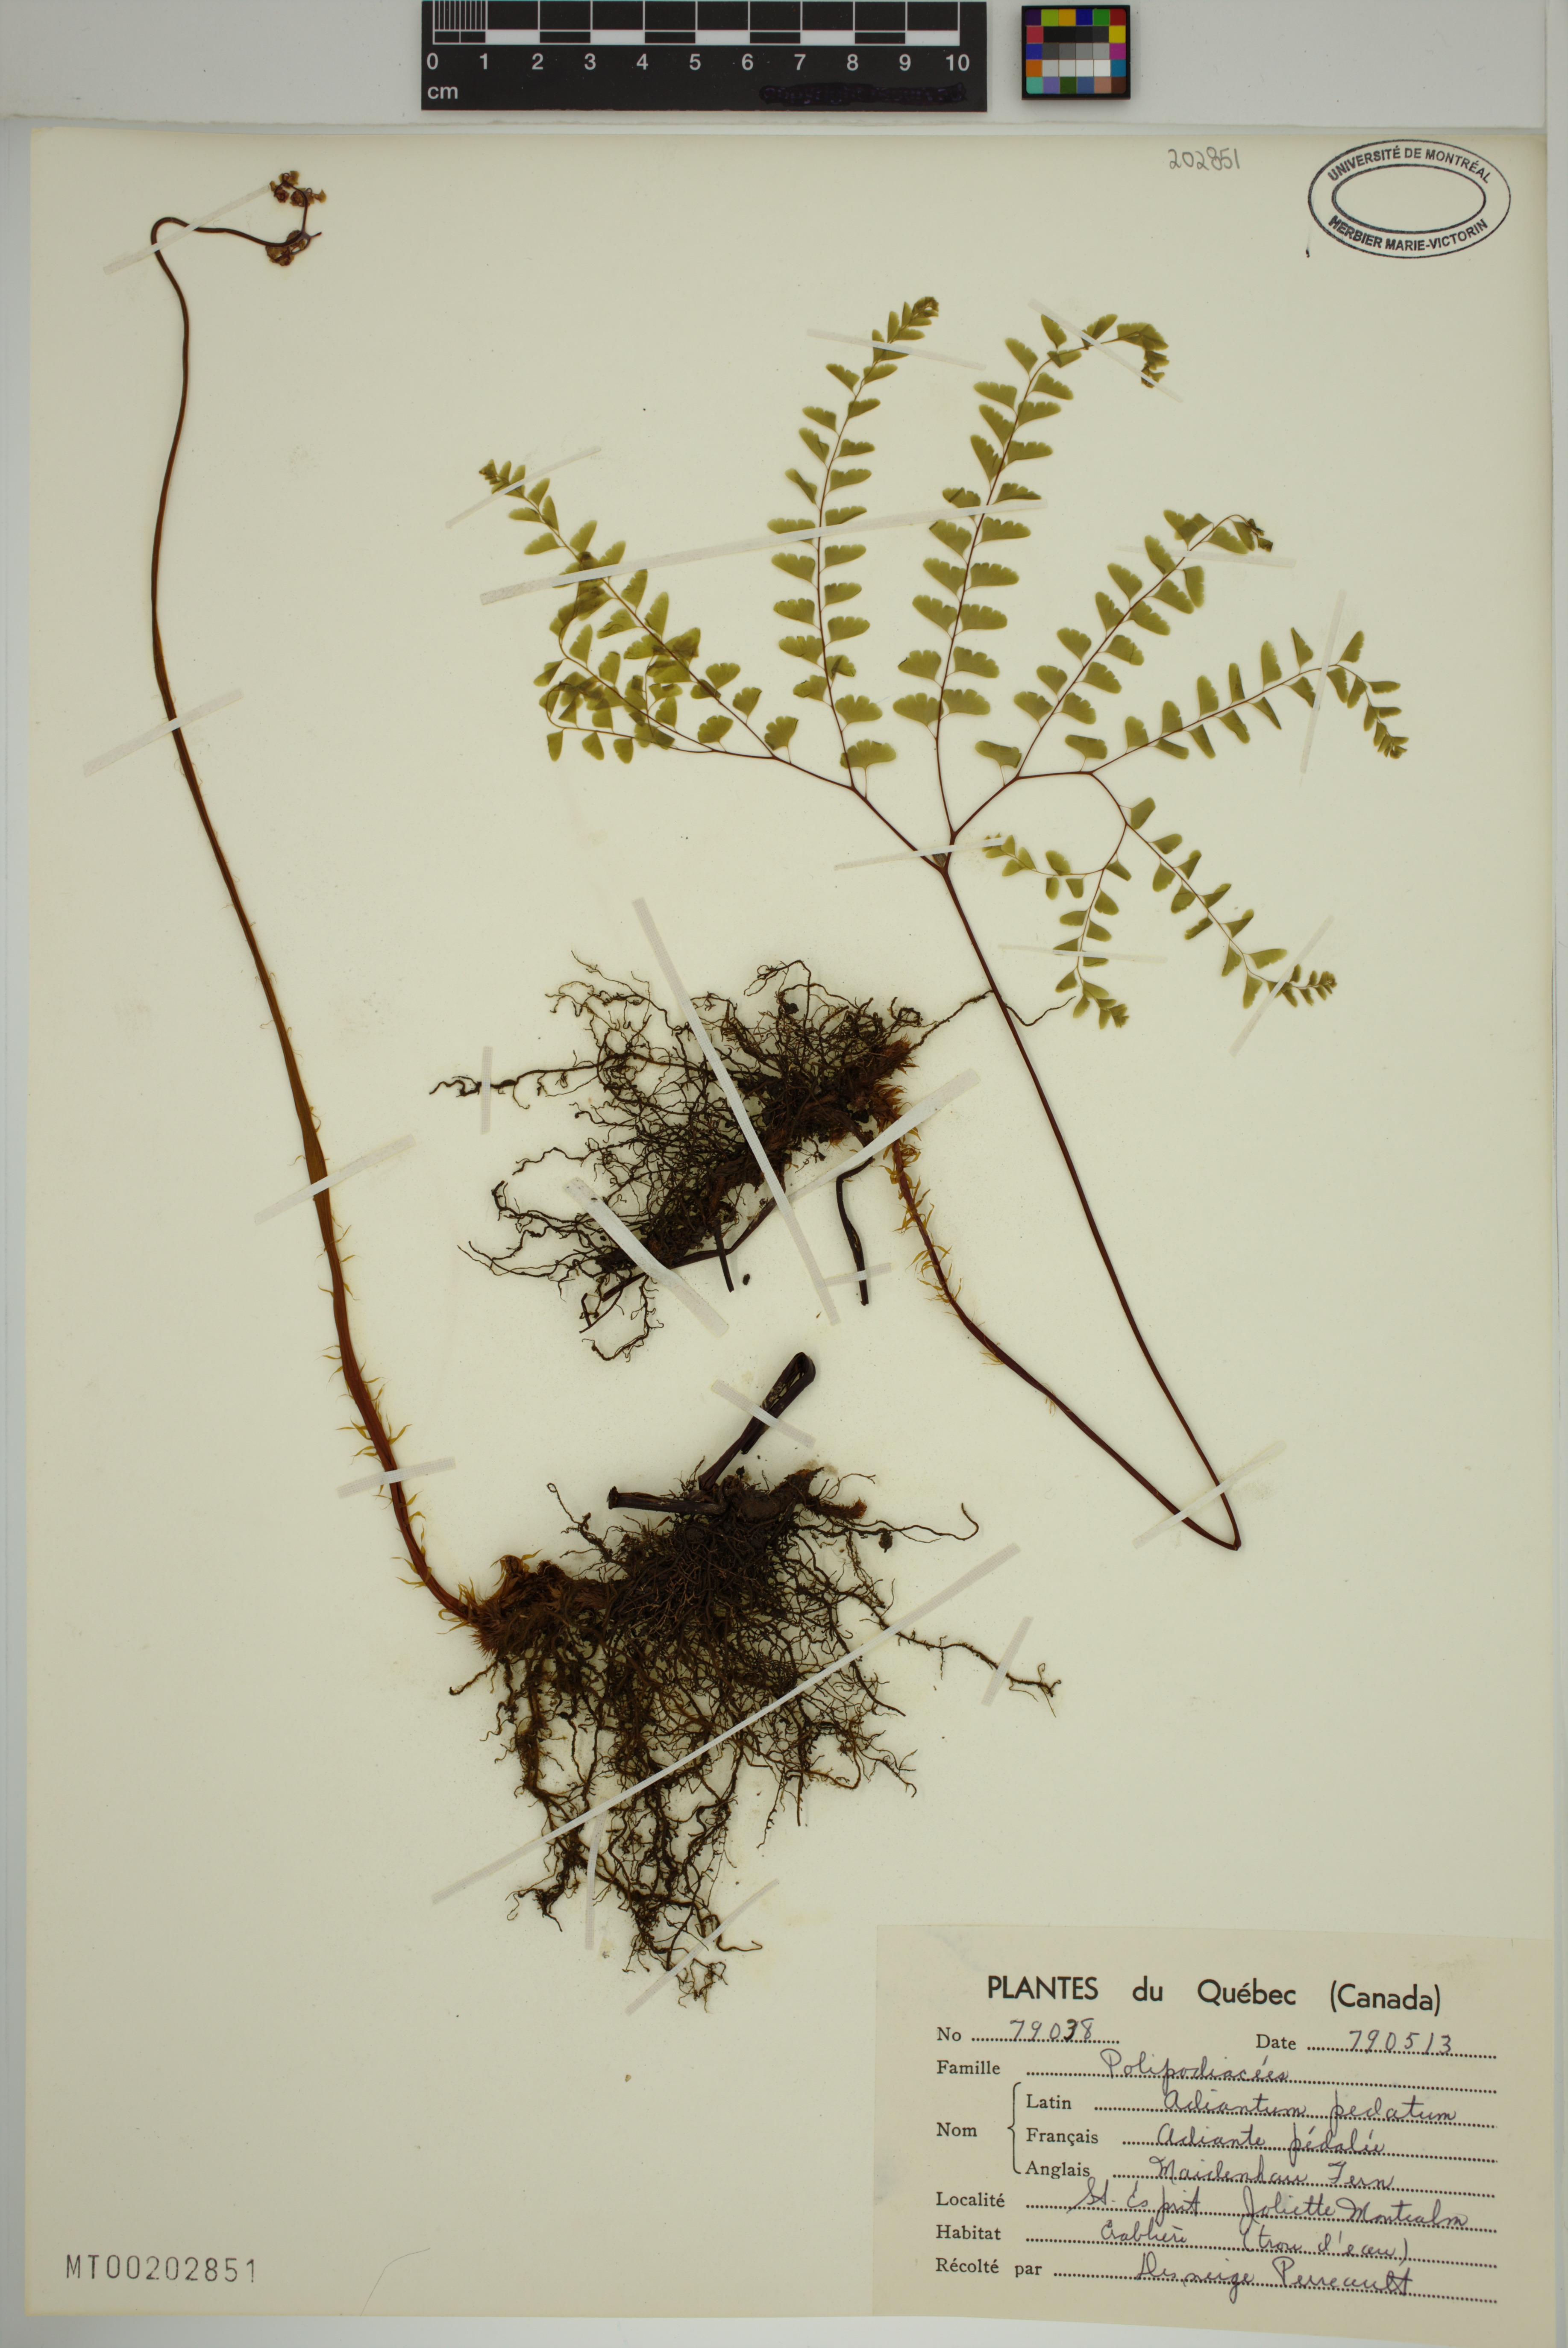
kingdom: Plantae
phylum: Tracheophyta
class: Polypodiopsida
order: Polypodiales
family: Pteridaceae
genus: Adiantum
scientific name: Adiantum pedatum
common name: Five-finger fern
